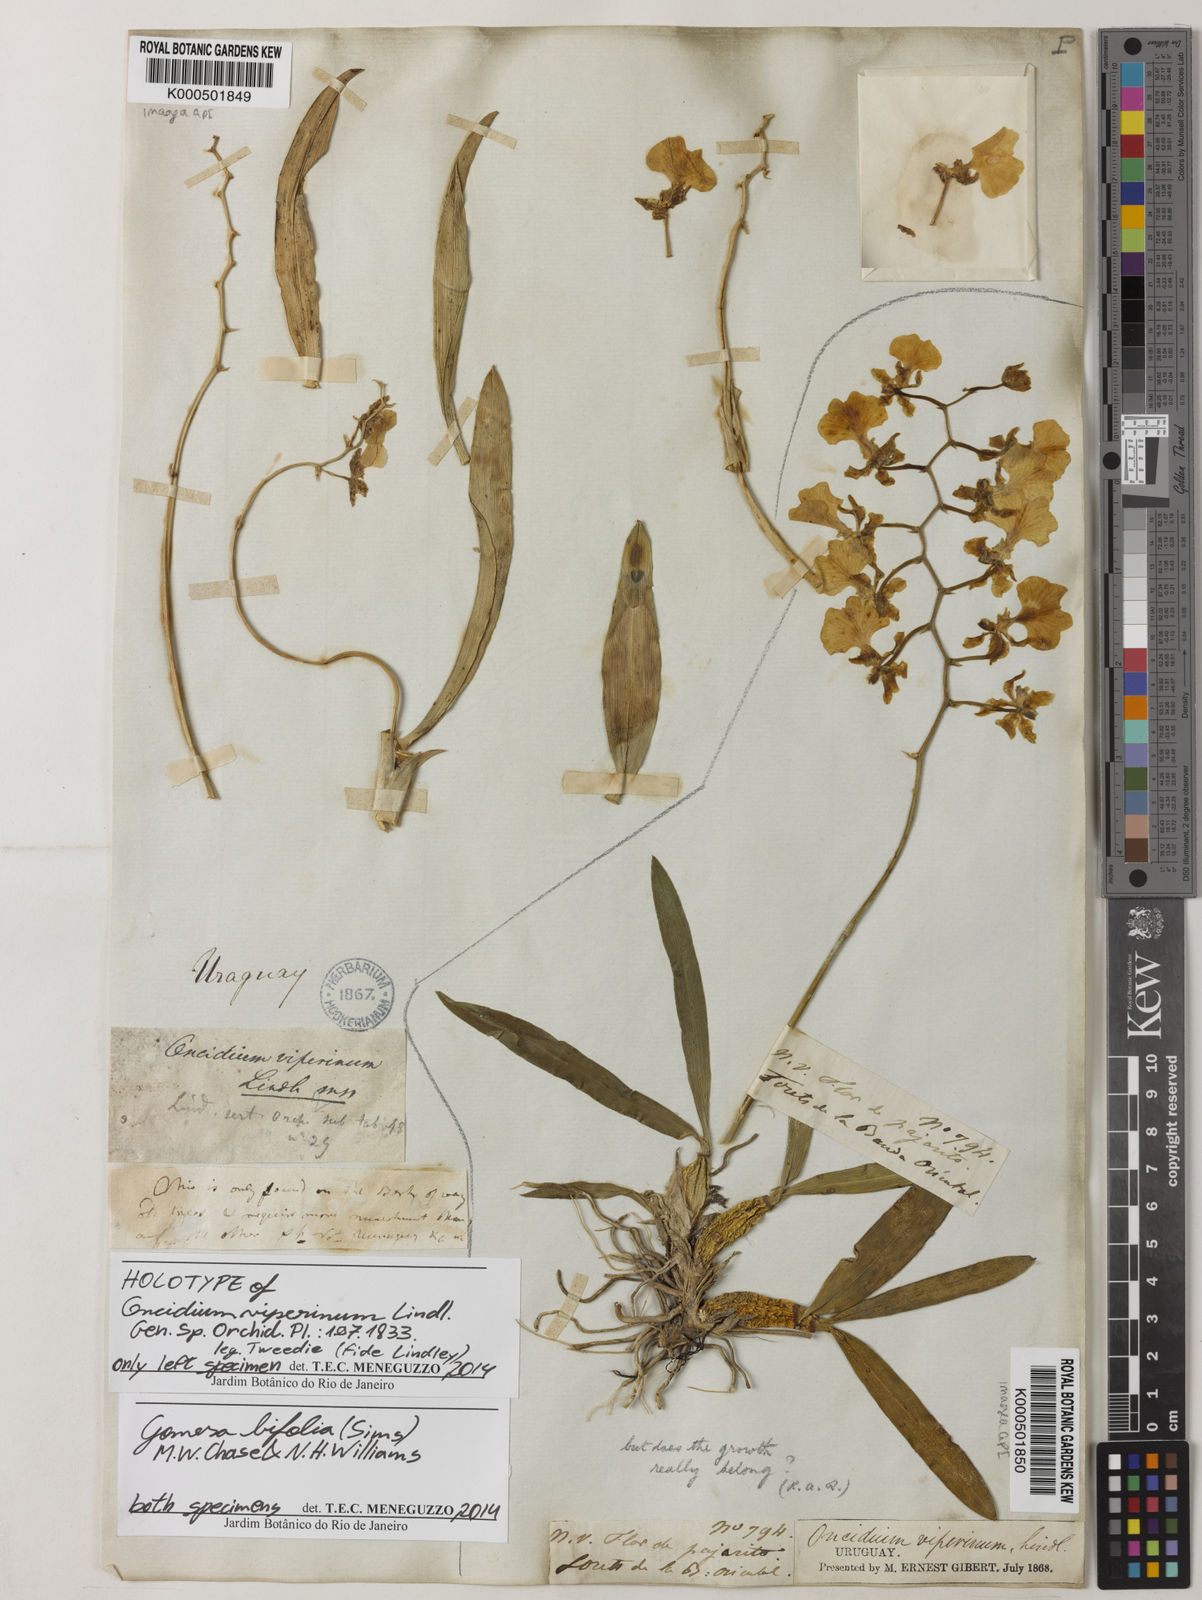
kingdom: Plantae
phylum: Tracheophyta
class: Liliopsida
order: Asparagales
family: Orchidaceae
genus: Gomesa
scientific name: Gomesa bifolia
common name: Dancing ladies
